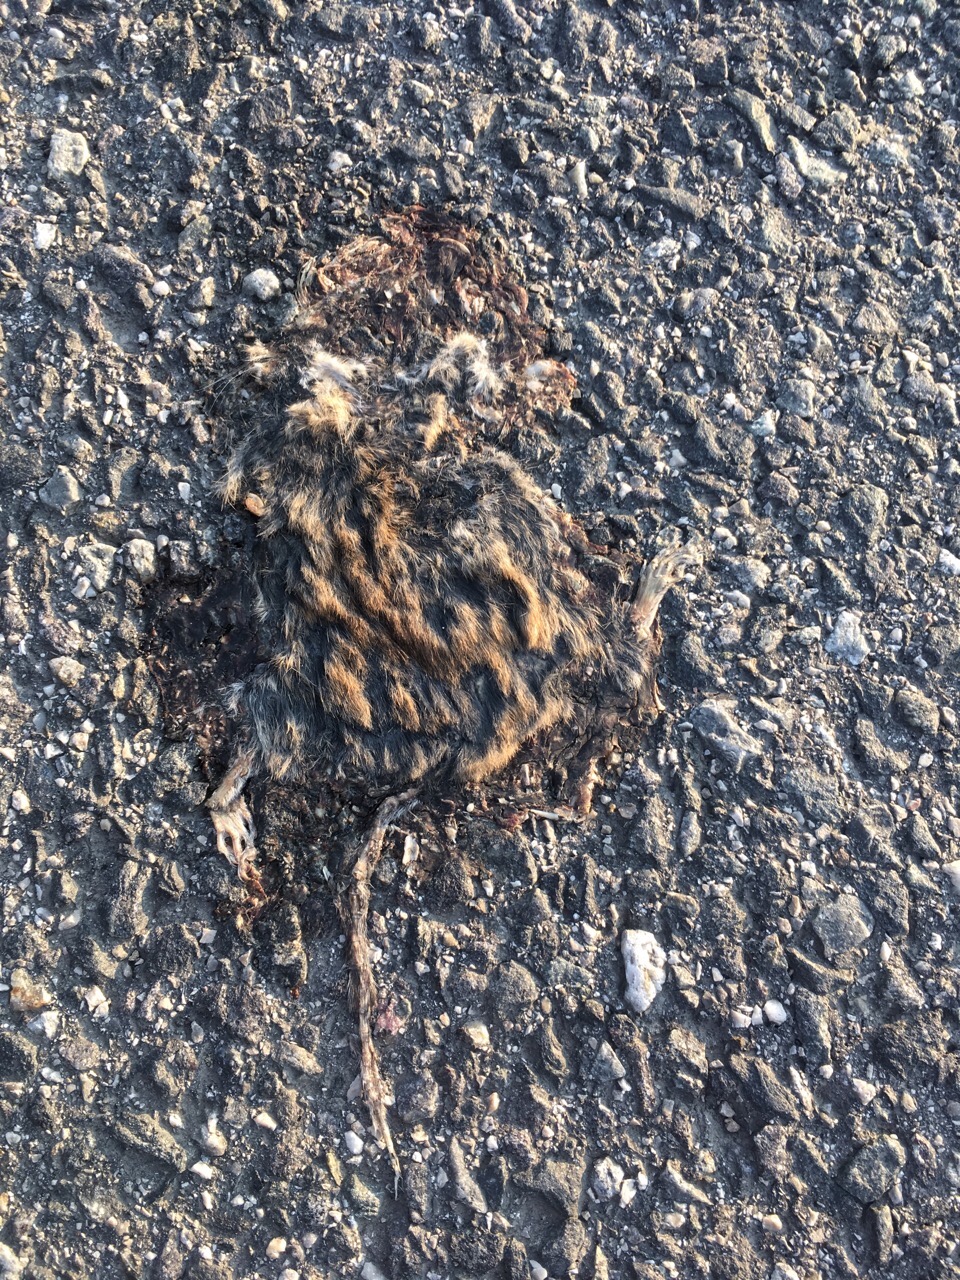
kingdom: Animalia
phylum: Chordata
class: Mammalia
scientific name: Mammalia
